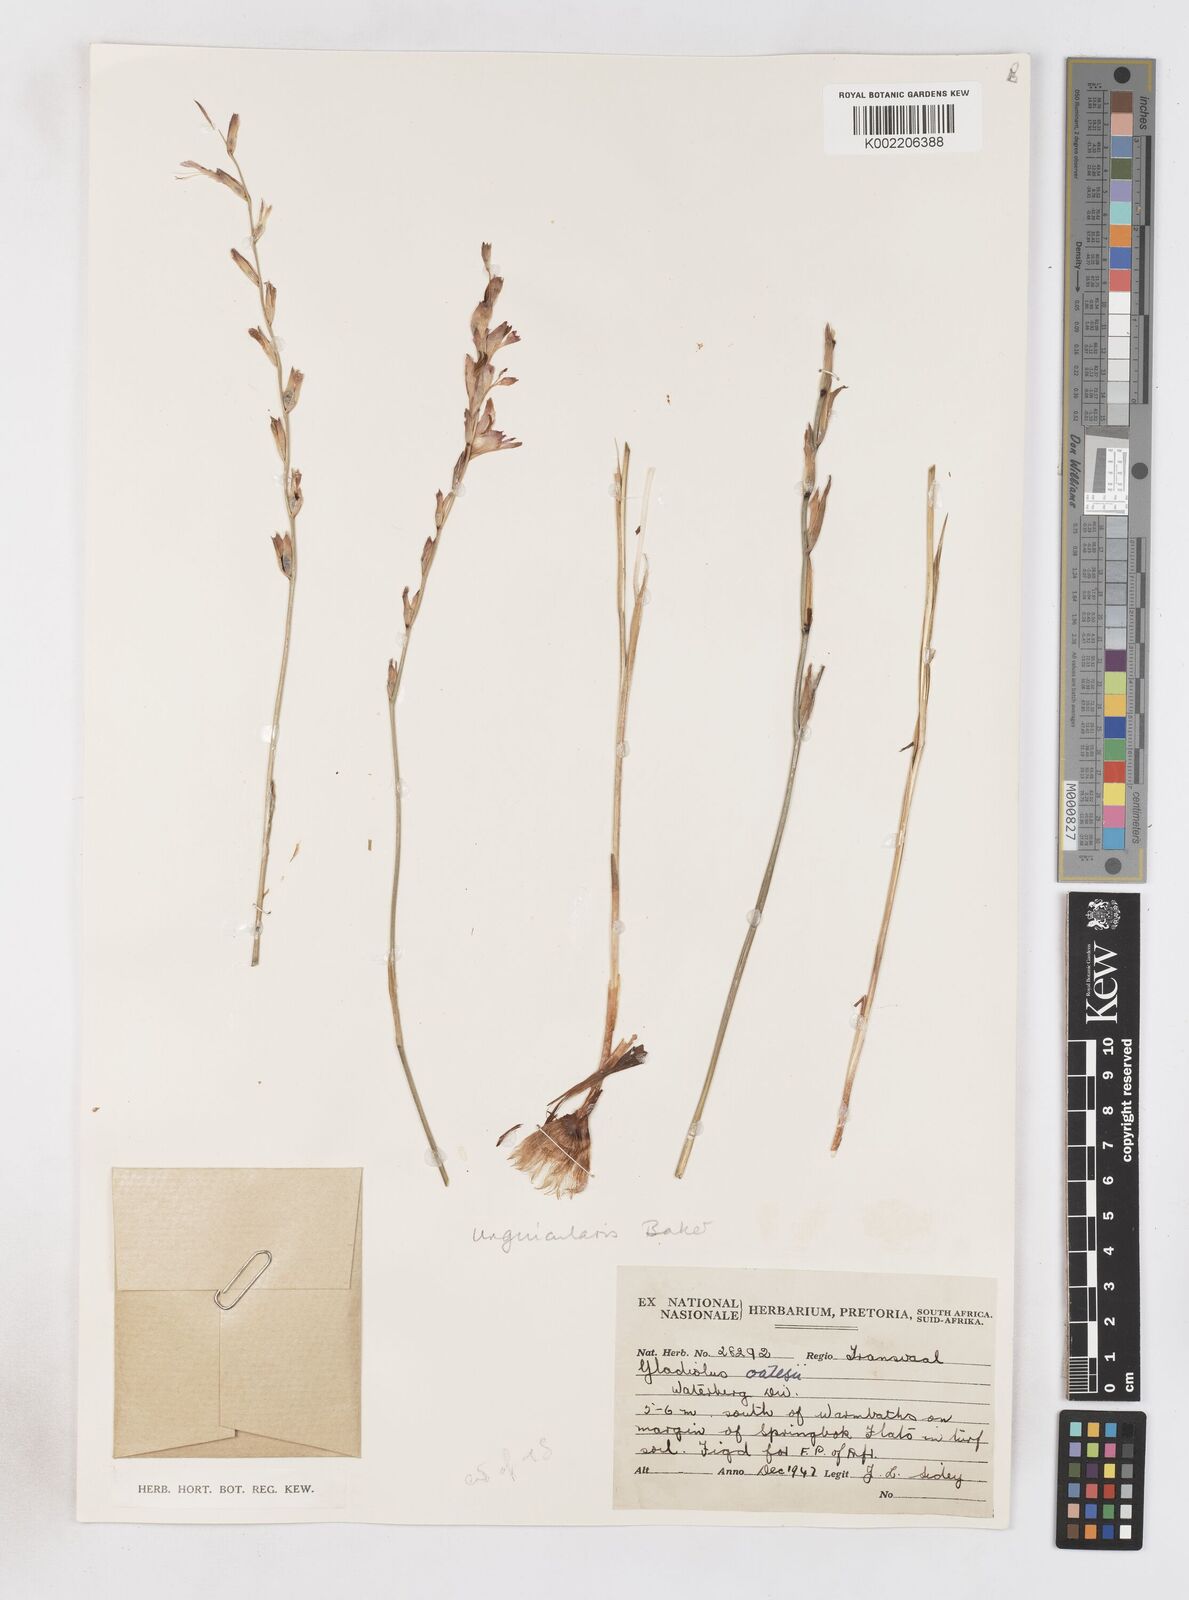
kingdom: Plantae
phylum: Tracheophyta
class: Liliopsida
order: Asparagales
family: Iridaceae
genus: Gladiolus
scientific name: Gladiolus unguiculatus
